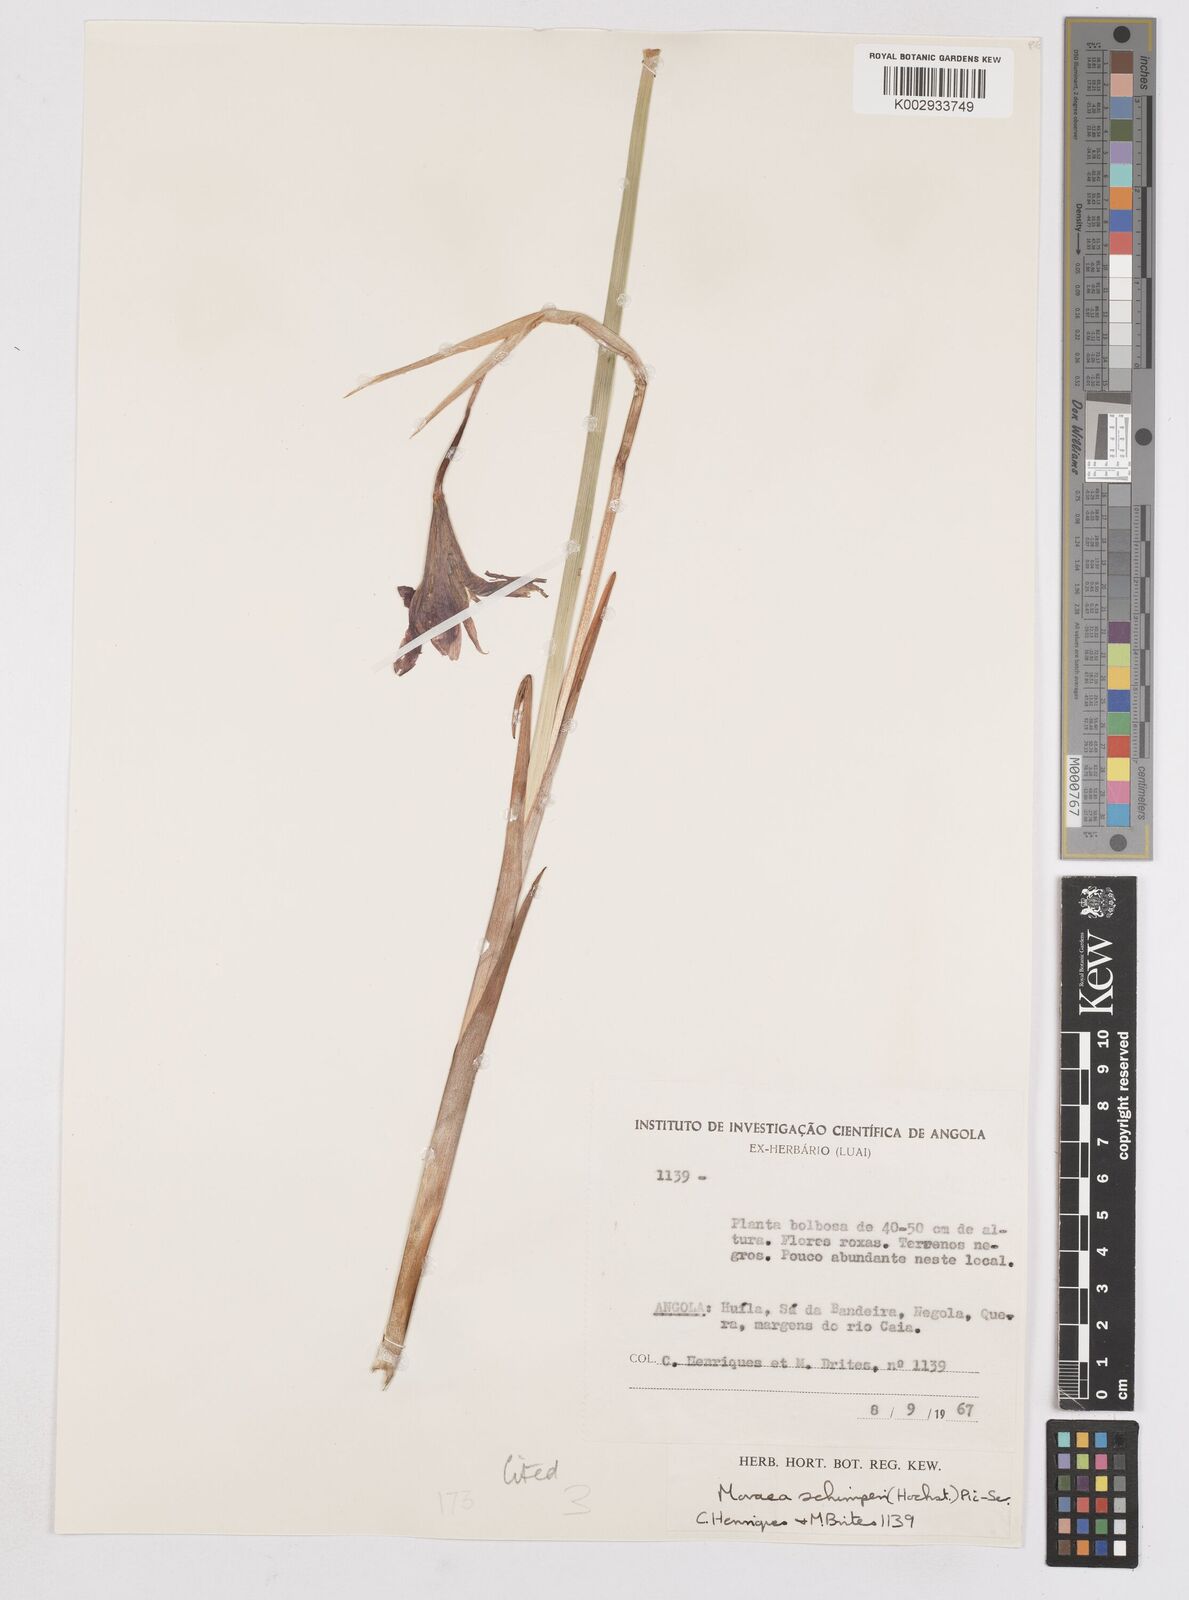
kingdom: Plantae
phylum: Tracheophyta
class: Liliopsida
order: Asparagales
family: Iridaceae
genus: Moraea
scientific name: Moraea schimperi
